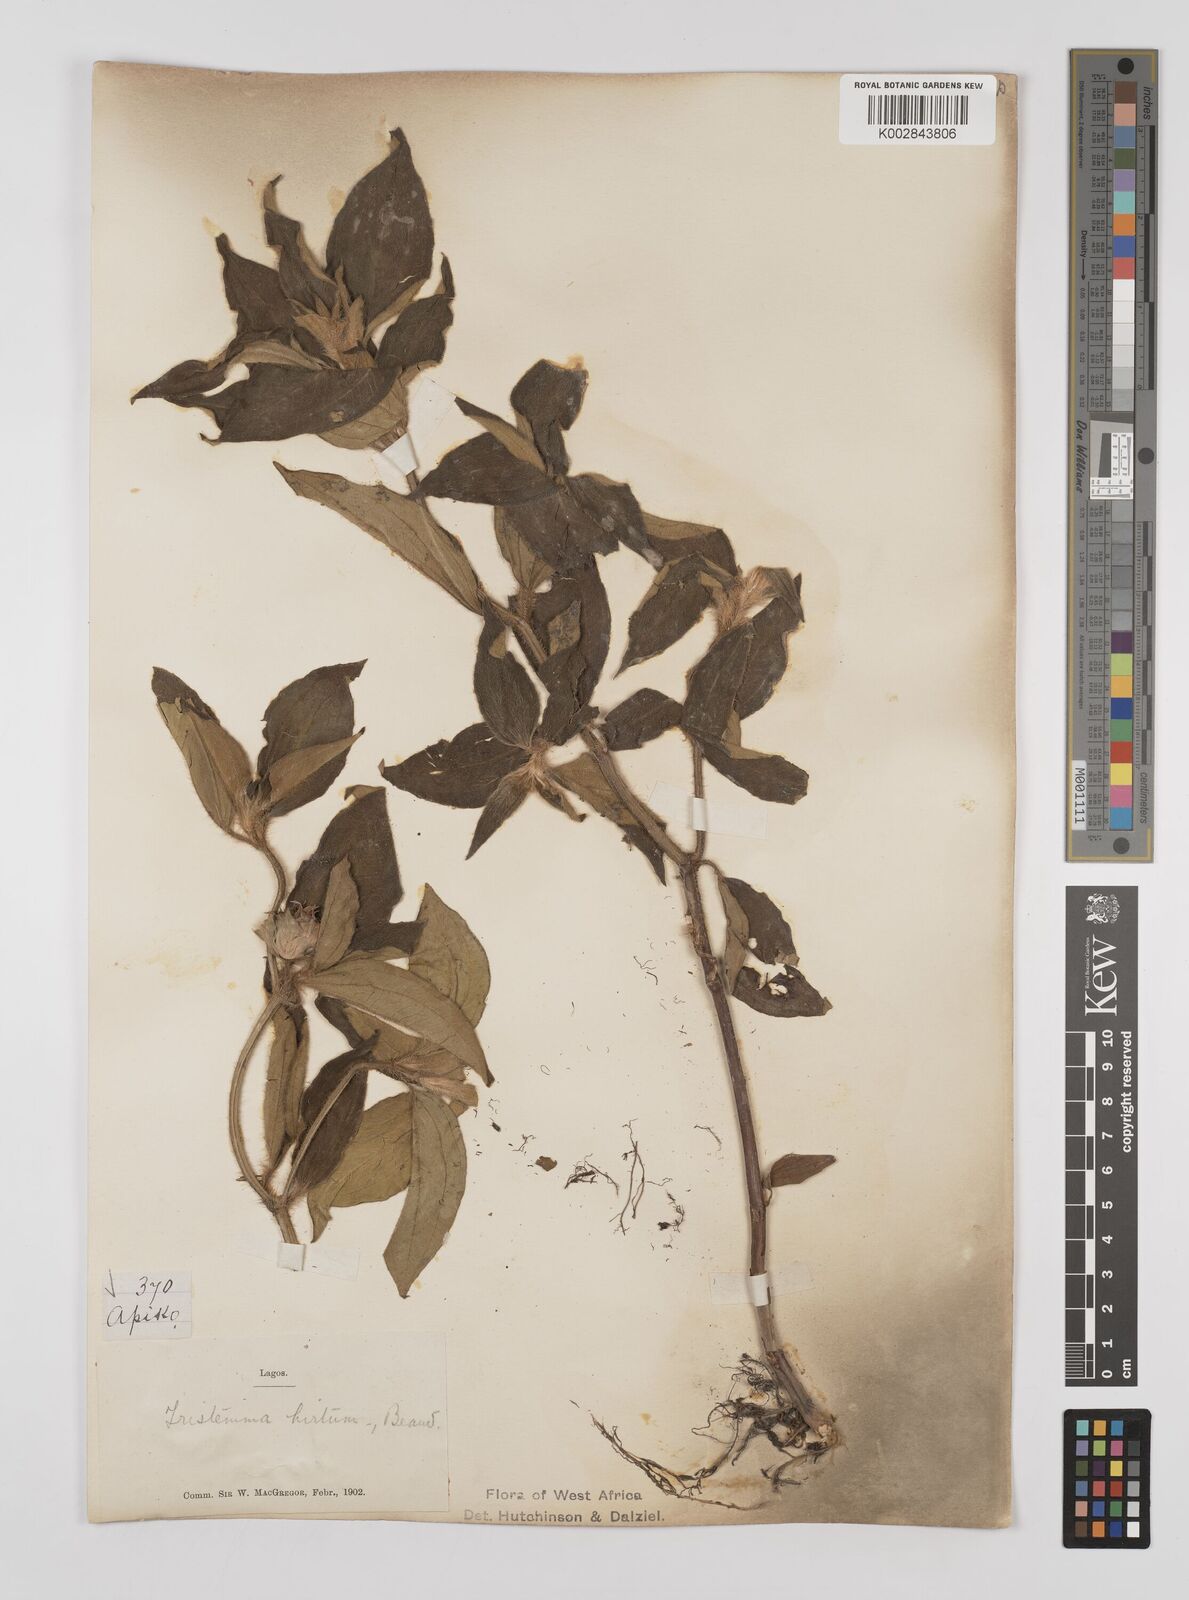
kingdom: Plantae
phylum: Tracheophyta
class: Magnoliopsida
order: Myrtales
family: Melastomataceae
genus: Tristemma
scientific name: Tristemma hirtum
